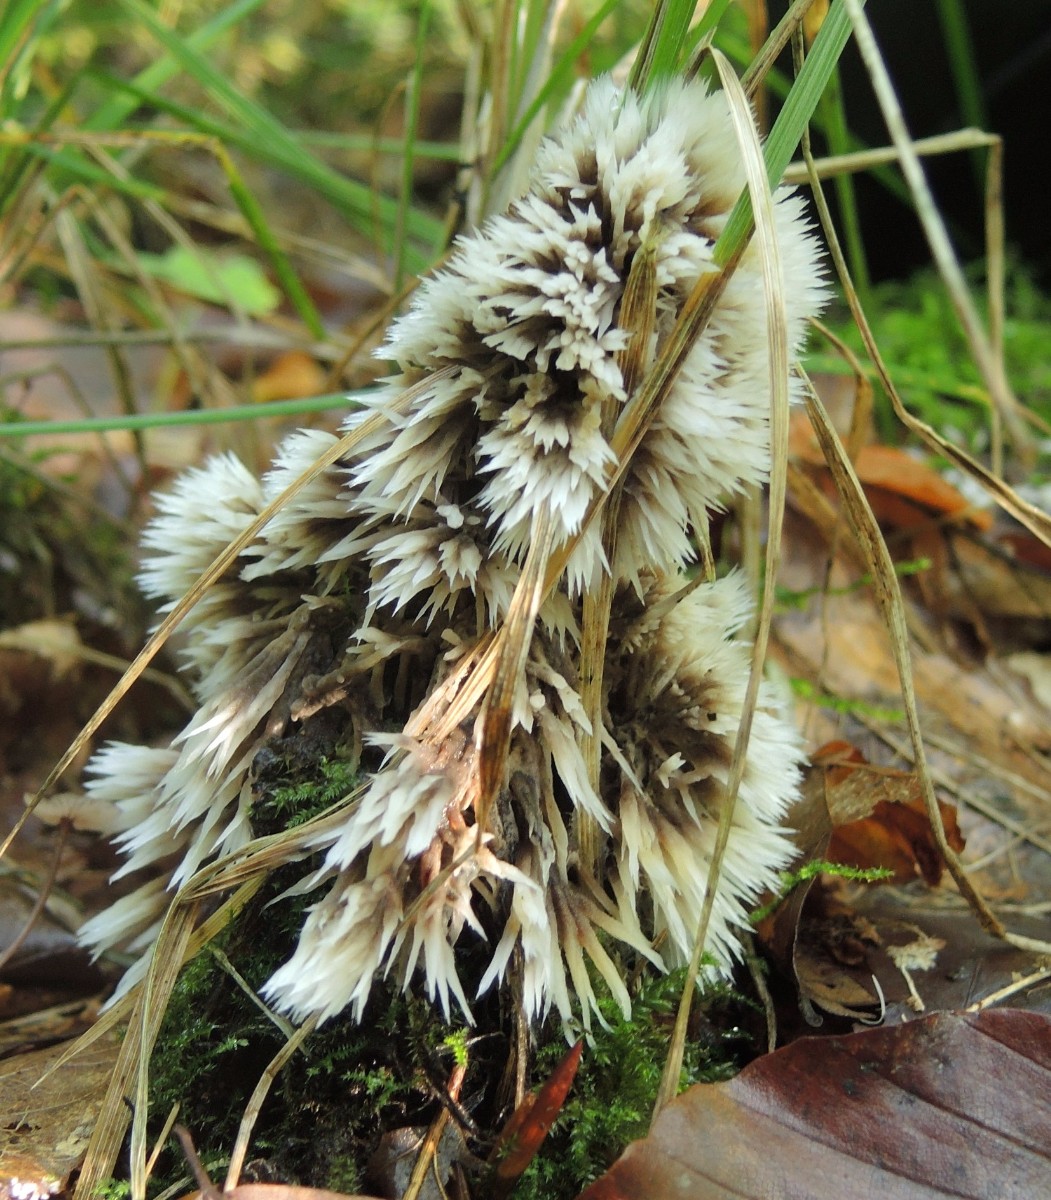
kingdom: Fungi
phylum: Basidiomycota
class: Agaricomycetes
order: Thelephorales
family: Thelephoraceae
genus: Thelephora
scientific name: Thelephora penicillata
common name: fladtrådt frynsesvamp
